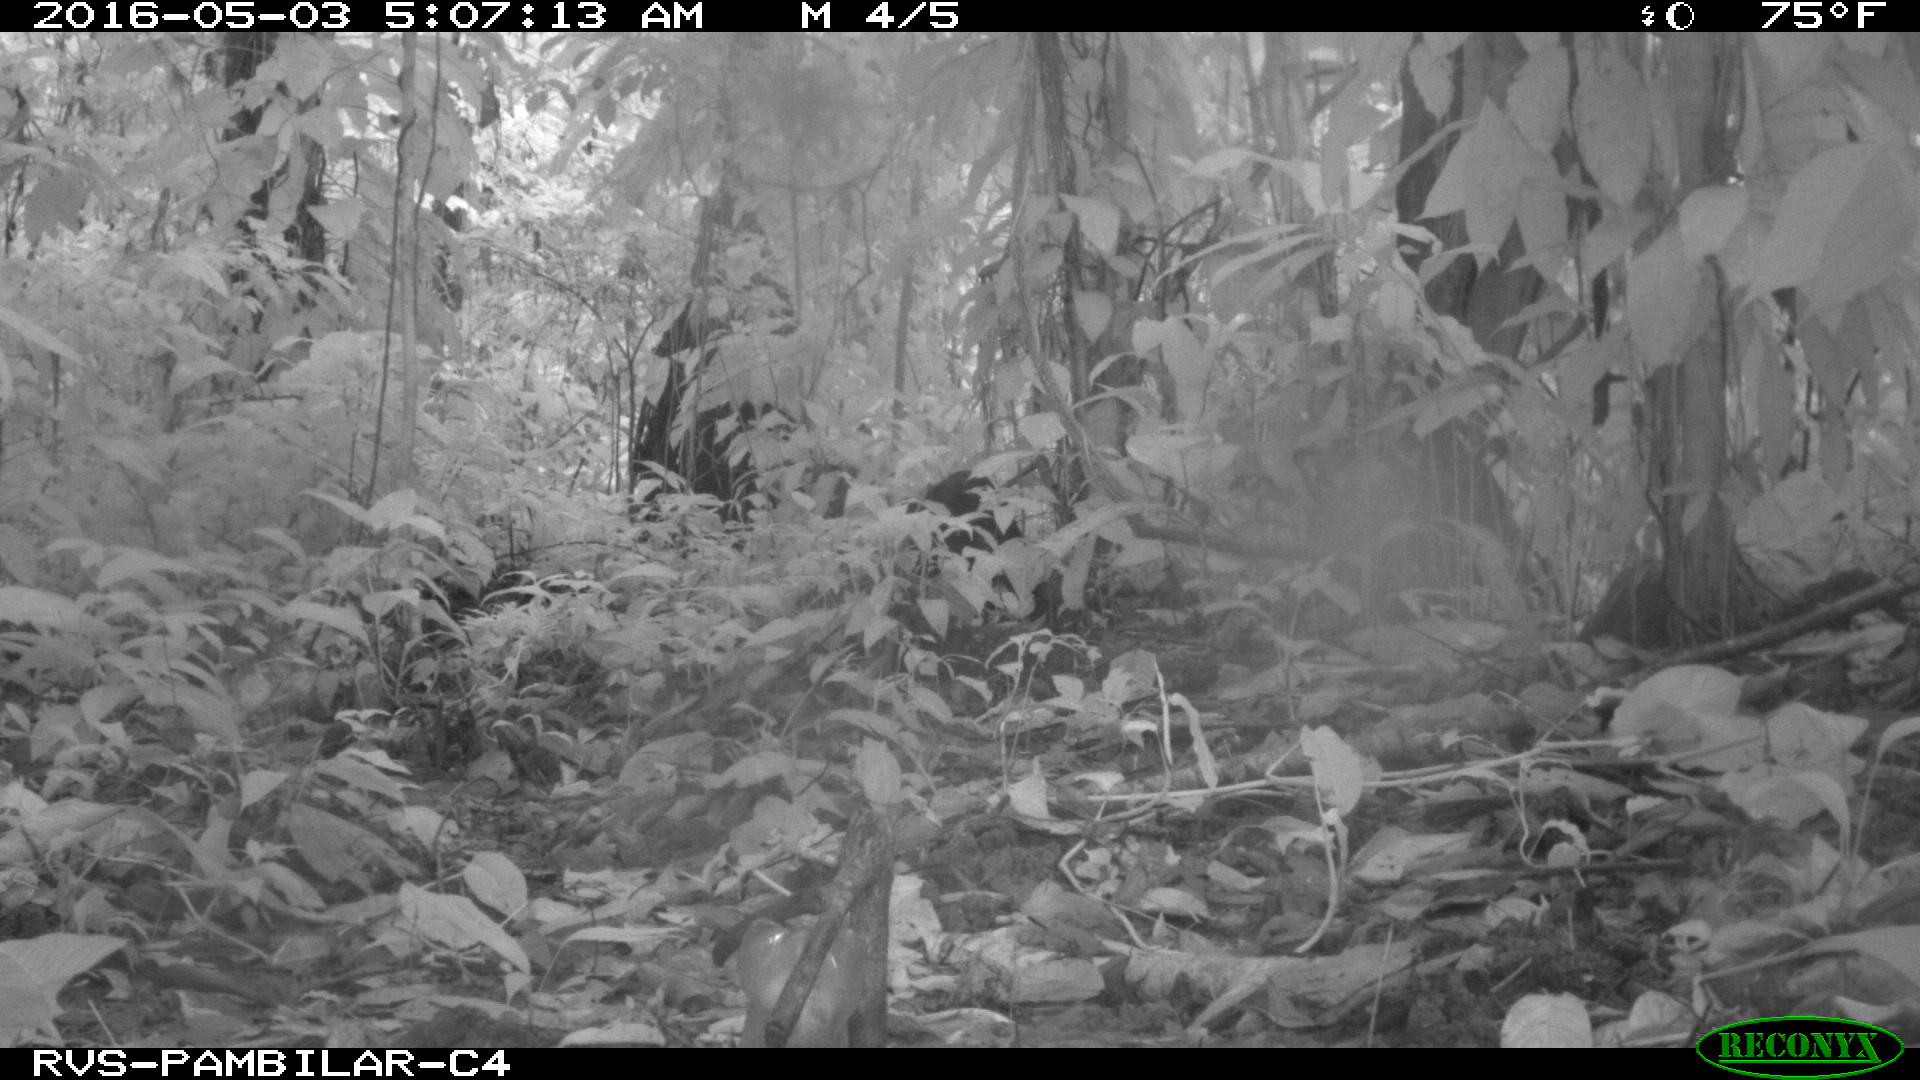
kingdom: Animalia
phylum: Chordata
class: Mammalia
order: Artiodactyla
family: Tayassuidae
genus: Tayassu
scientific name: Tayassu pecari
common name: White-lipped peccary
